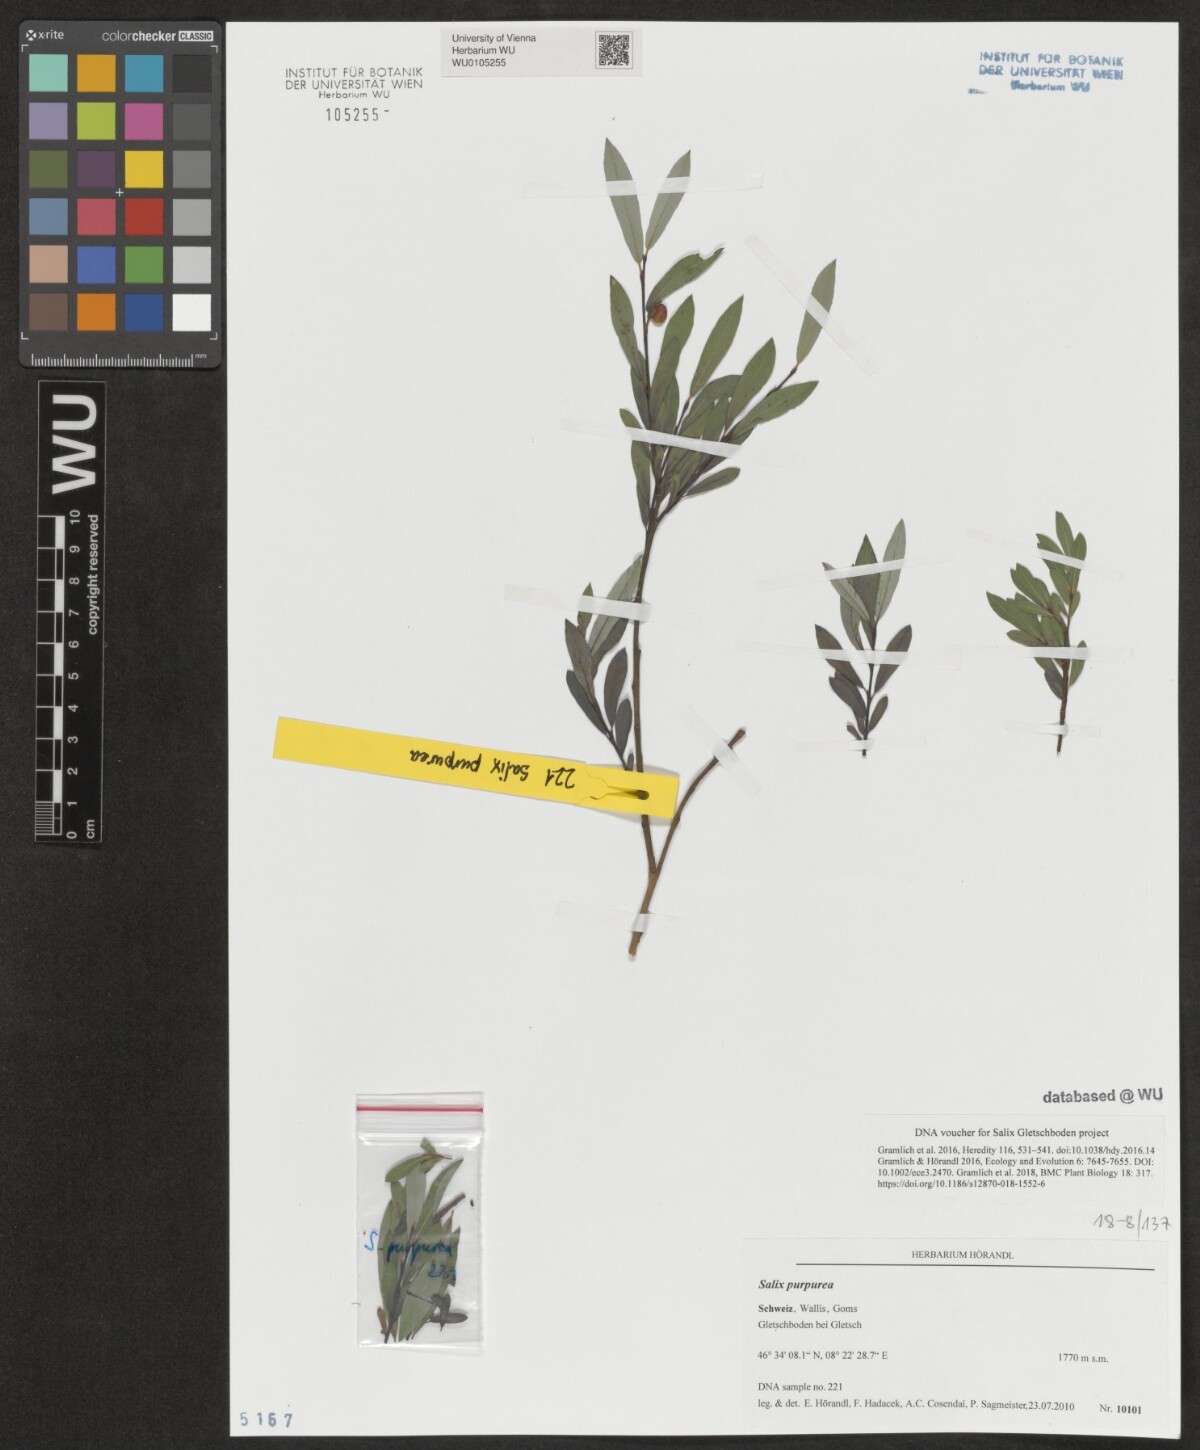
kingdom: Plantae
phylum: Tracheophyta
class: Magnoliopsida
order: Malpighiales
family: Salicaceae
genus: Salix
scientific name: Salix purpurea
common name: Purple willow
